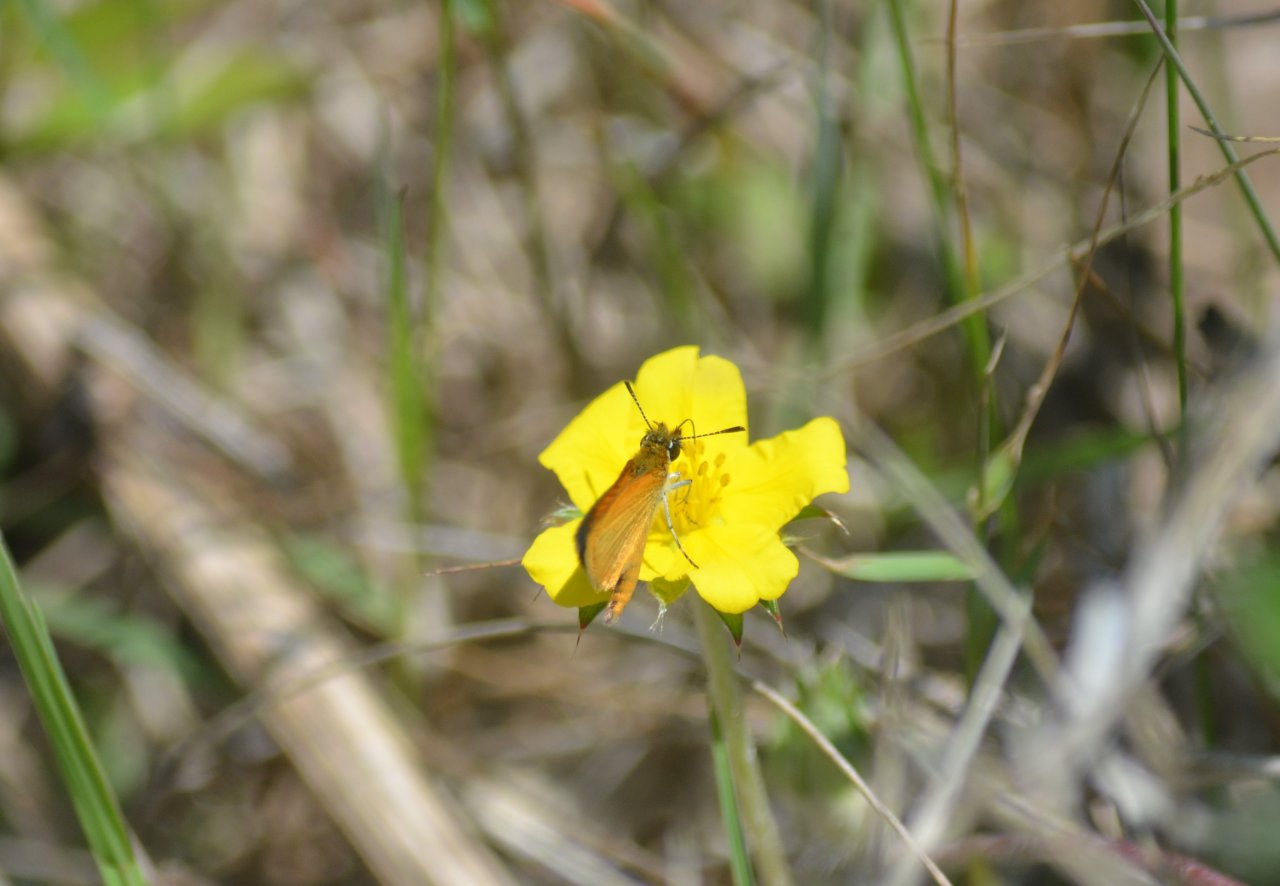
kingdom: Animalia
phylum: Arthropoda
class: Insecta
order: Lepidoptera
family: Hesperiidae
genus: Ancyloxypha
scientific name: Ancyloxypha numitor
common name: Least Skipper
